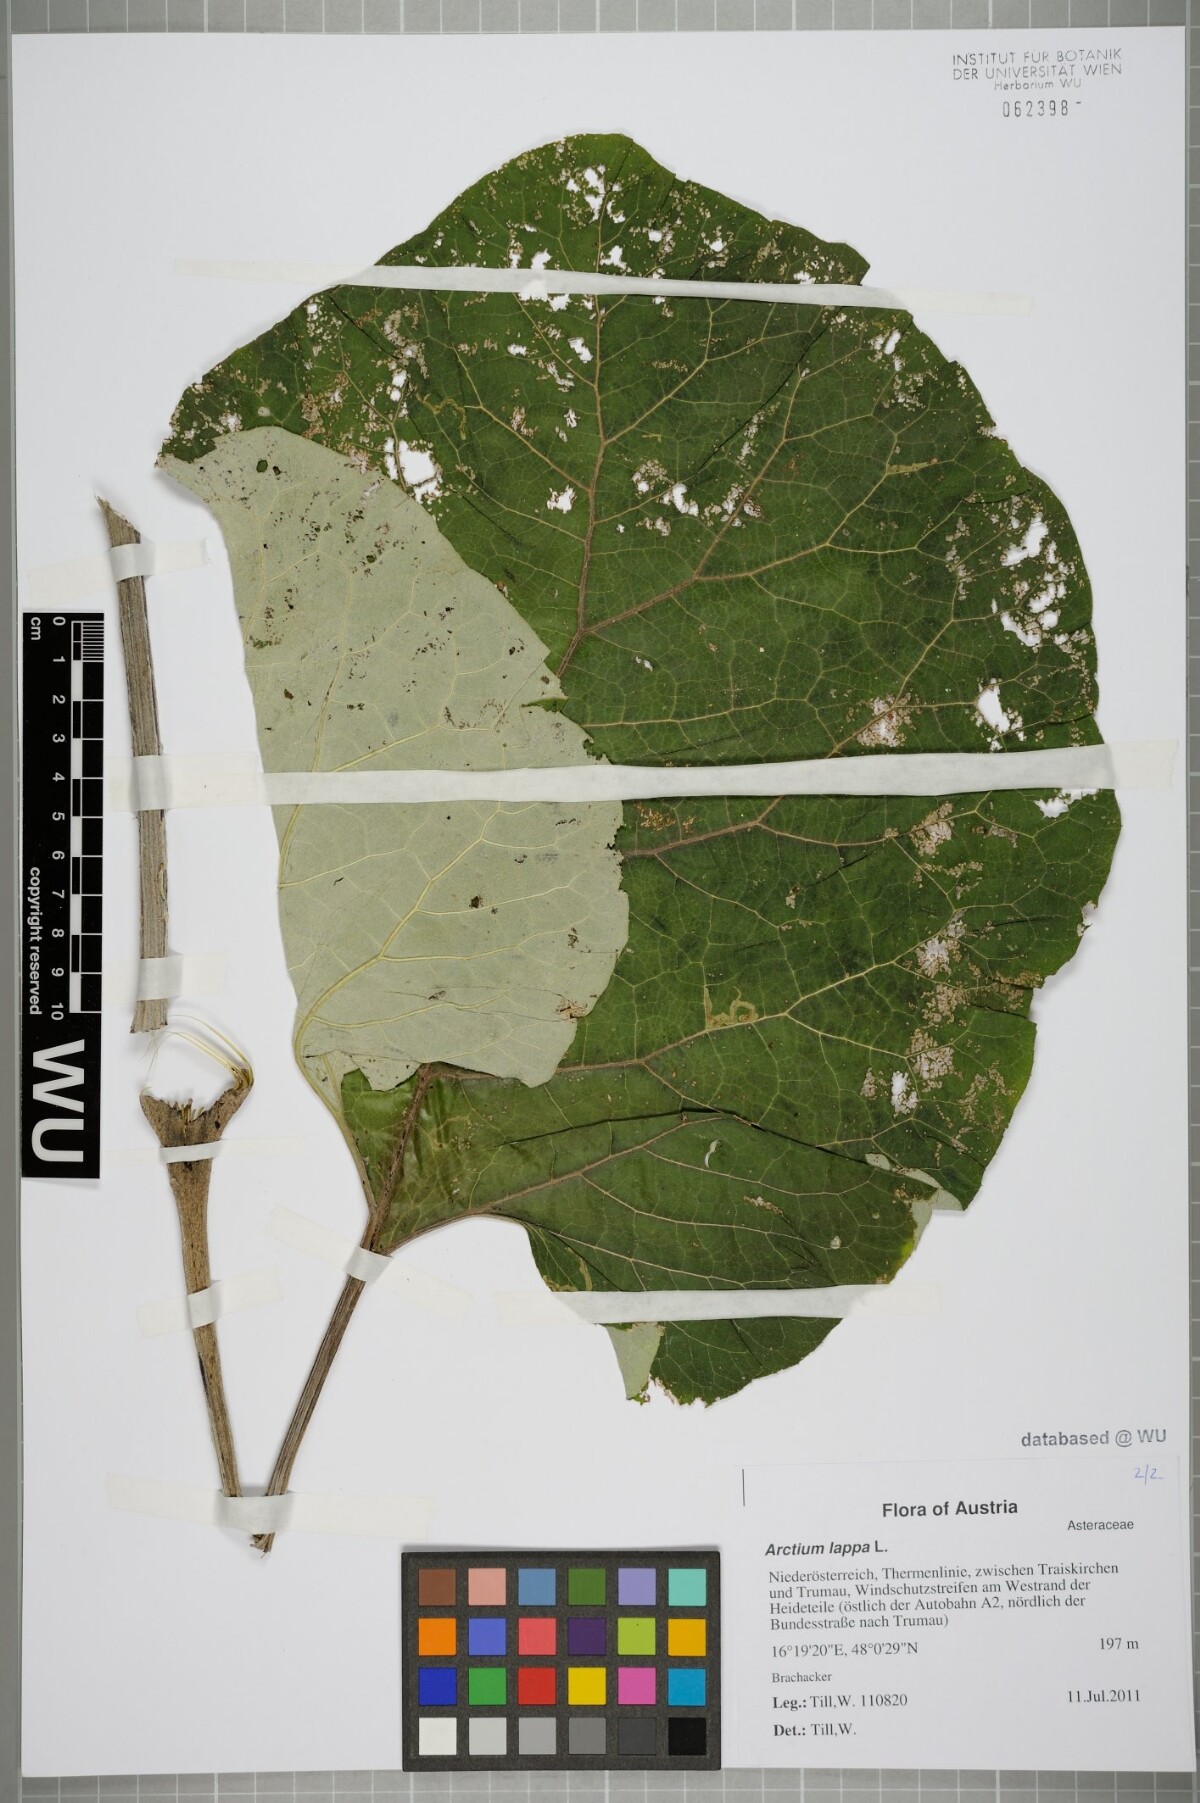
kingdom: Plantae
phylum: Tracheophyta
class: Magnoliopsida
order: Asterales
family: Asteraceae
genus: Arctium
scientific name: Arctium lappa
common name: Greater burdock
